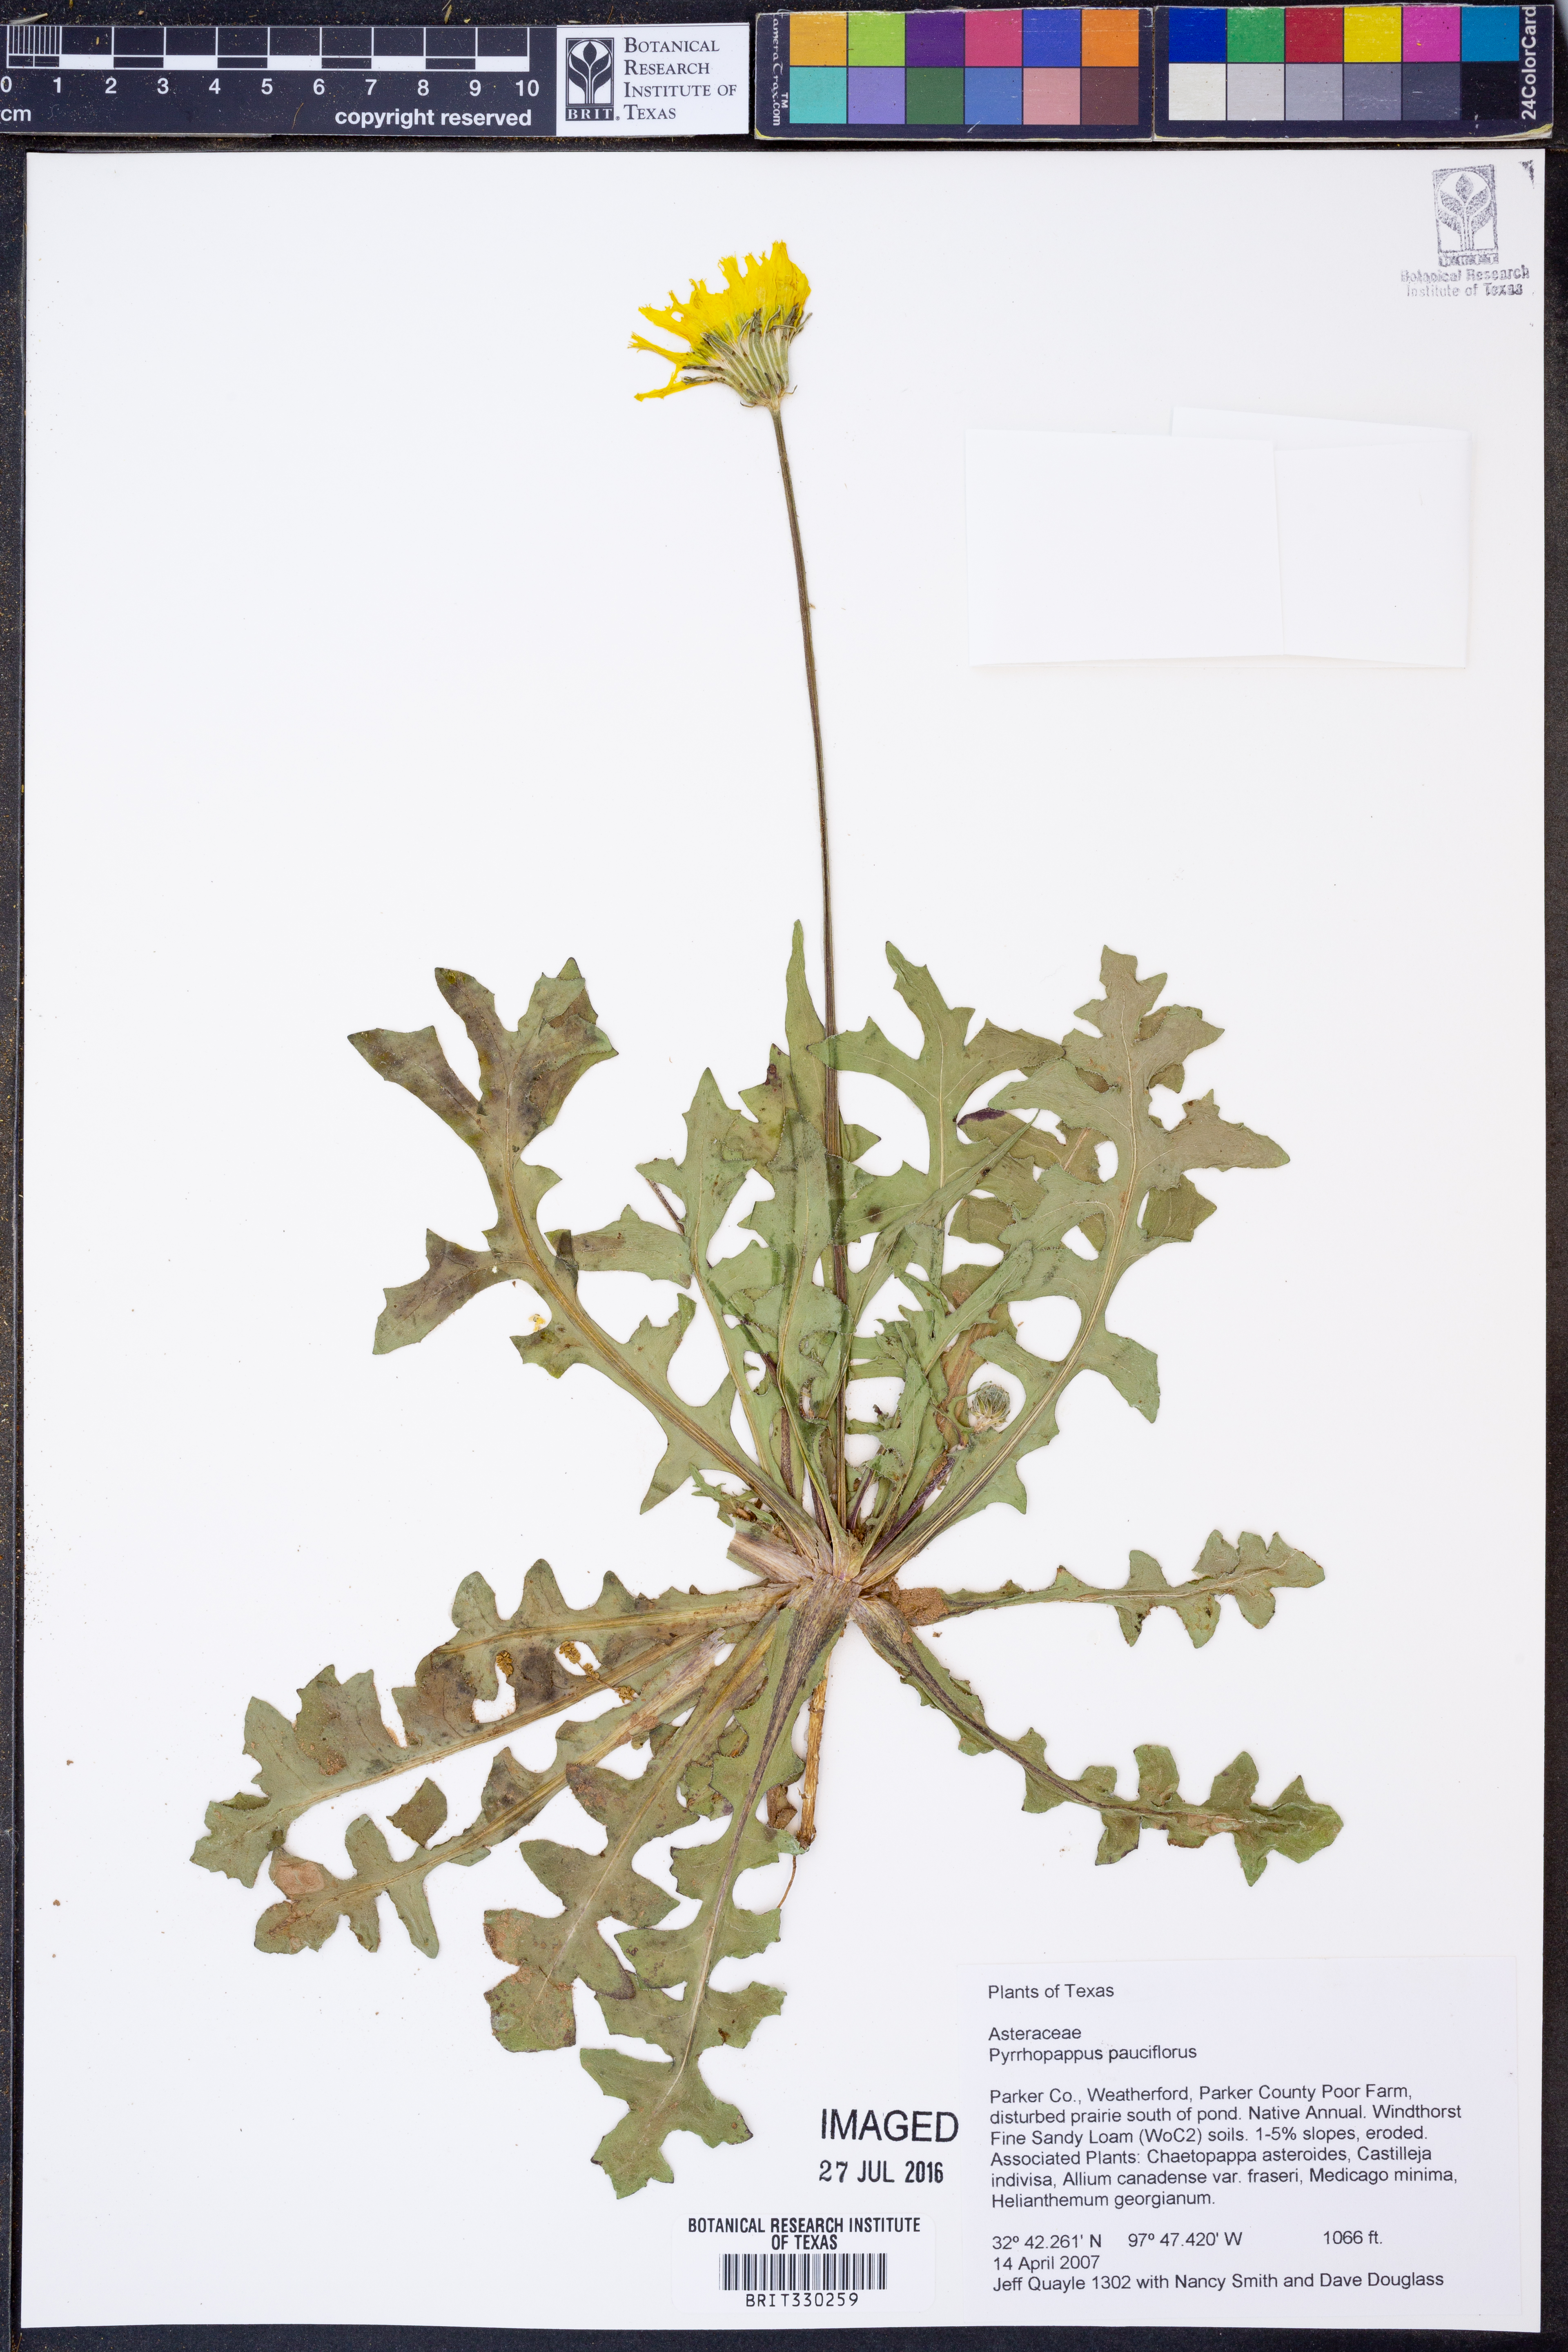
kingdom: Plantae
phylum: Tracheophyta
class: Magnoliopsida
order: Asterales
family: Asteraceae
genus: Pyrrhopappus
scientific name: Pyrrhopappus pauciflorus
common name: Texas false dandelion
